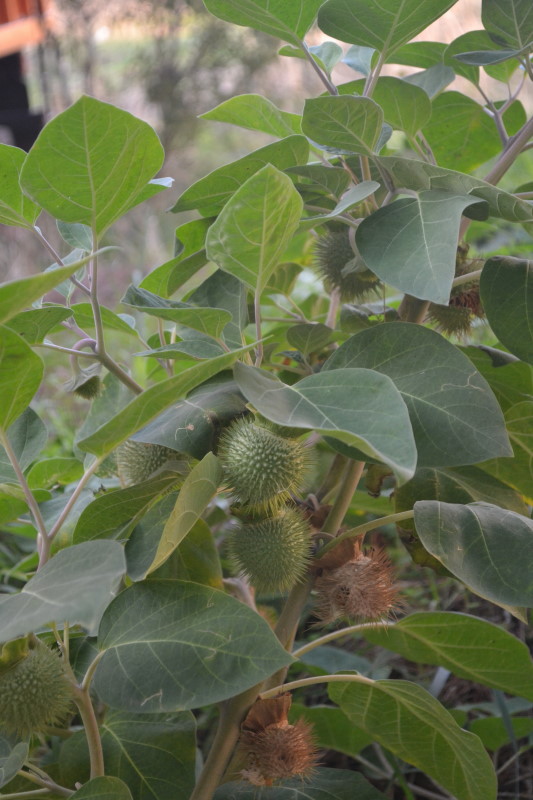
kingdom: Plantae
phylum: Tracheophyta
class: Magnoliopsida
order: Asterales
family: Asteraceae
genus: Xanthium
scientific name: Xanthium
